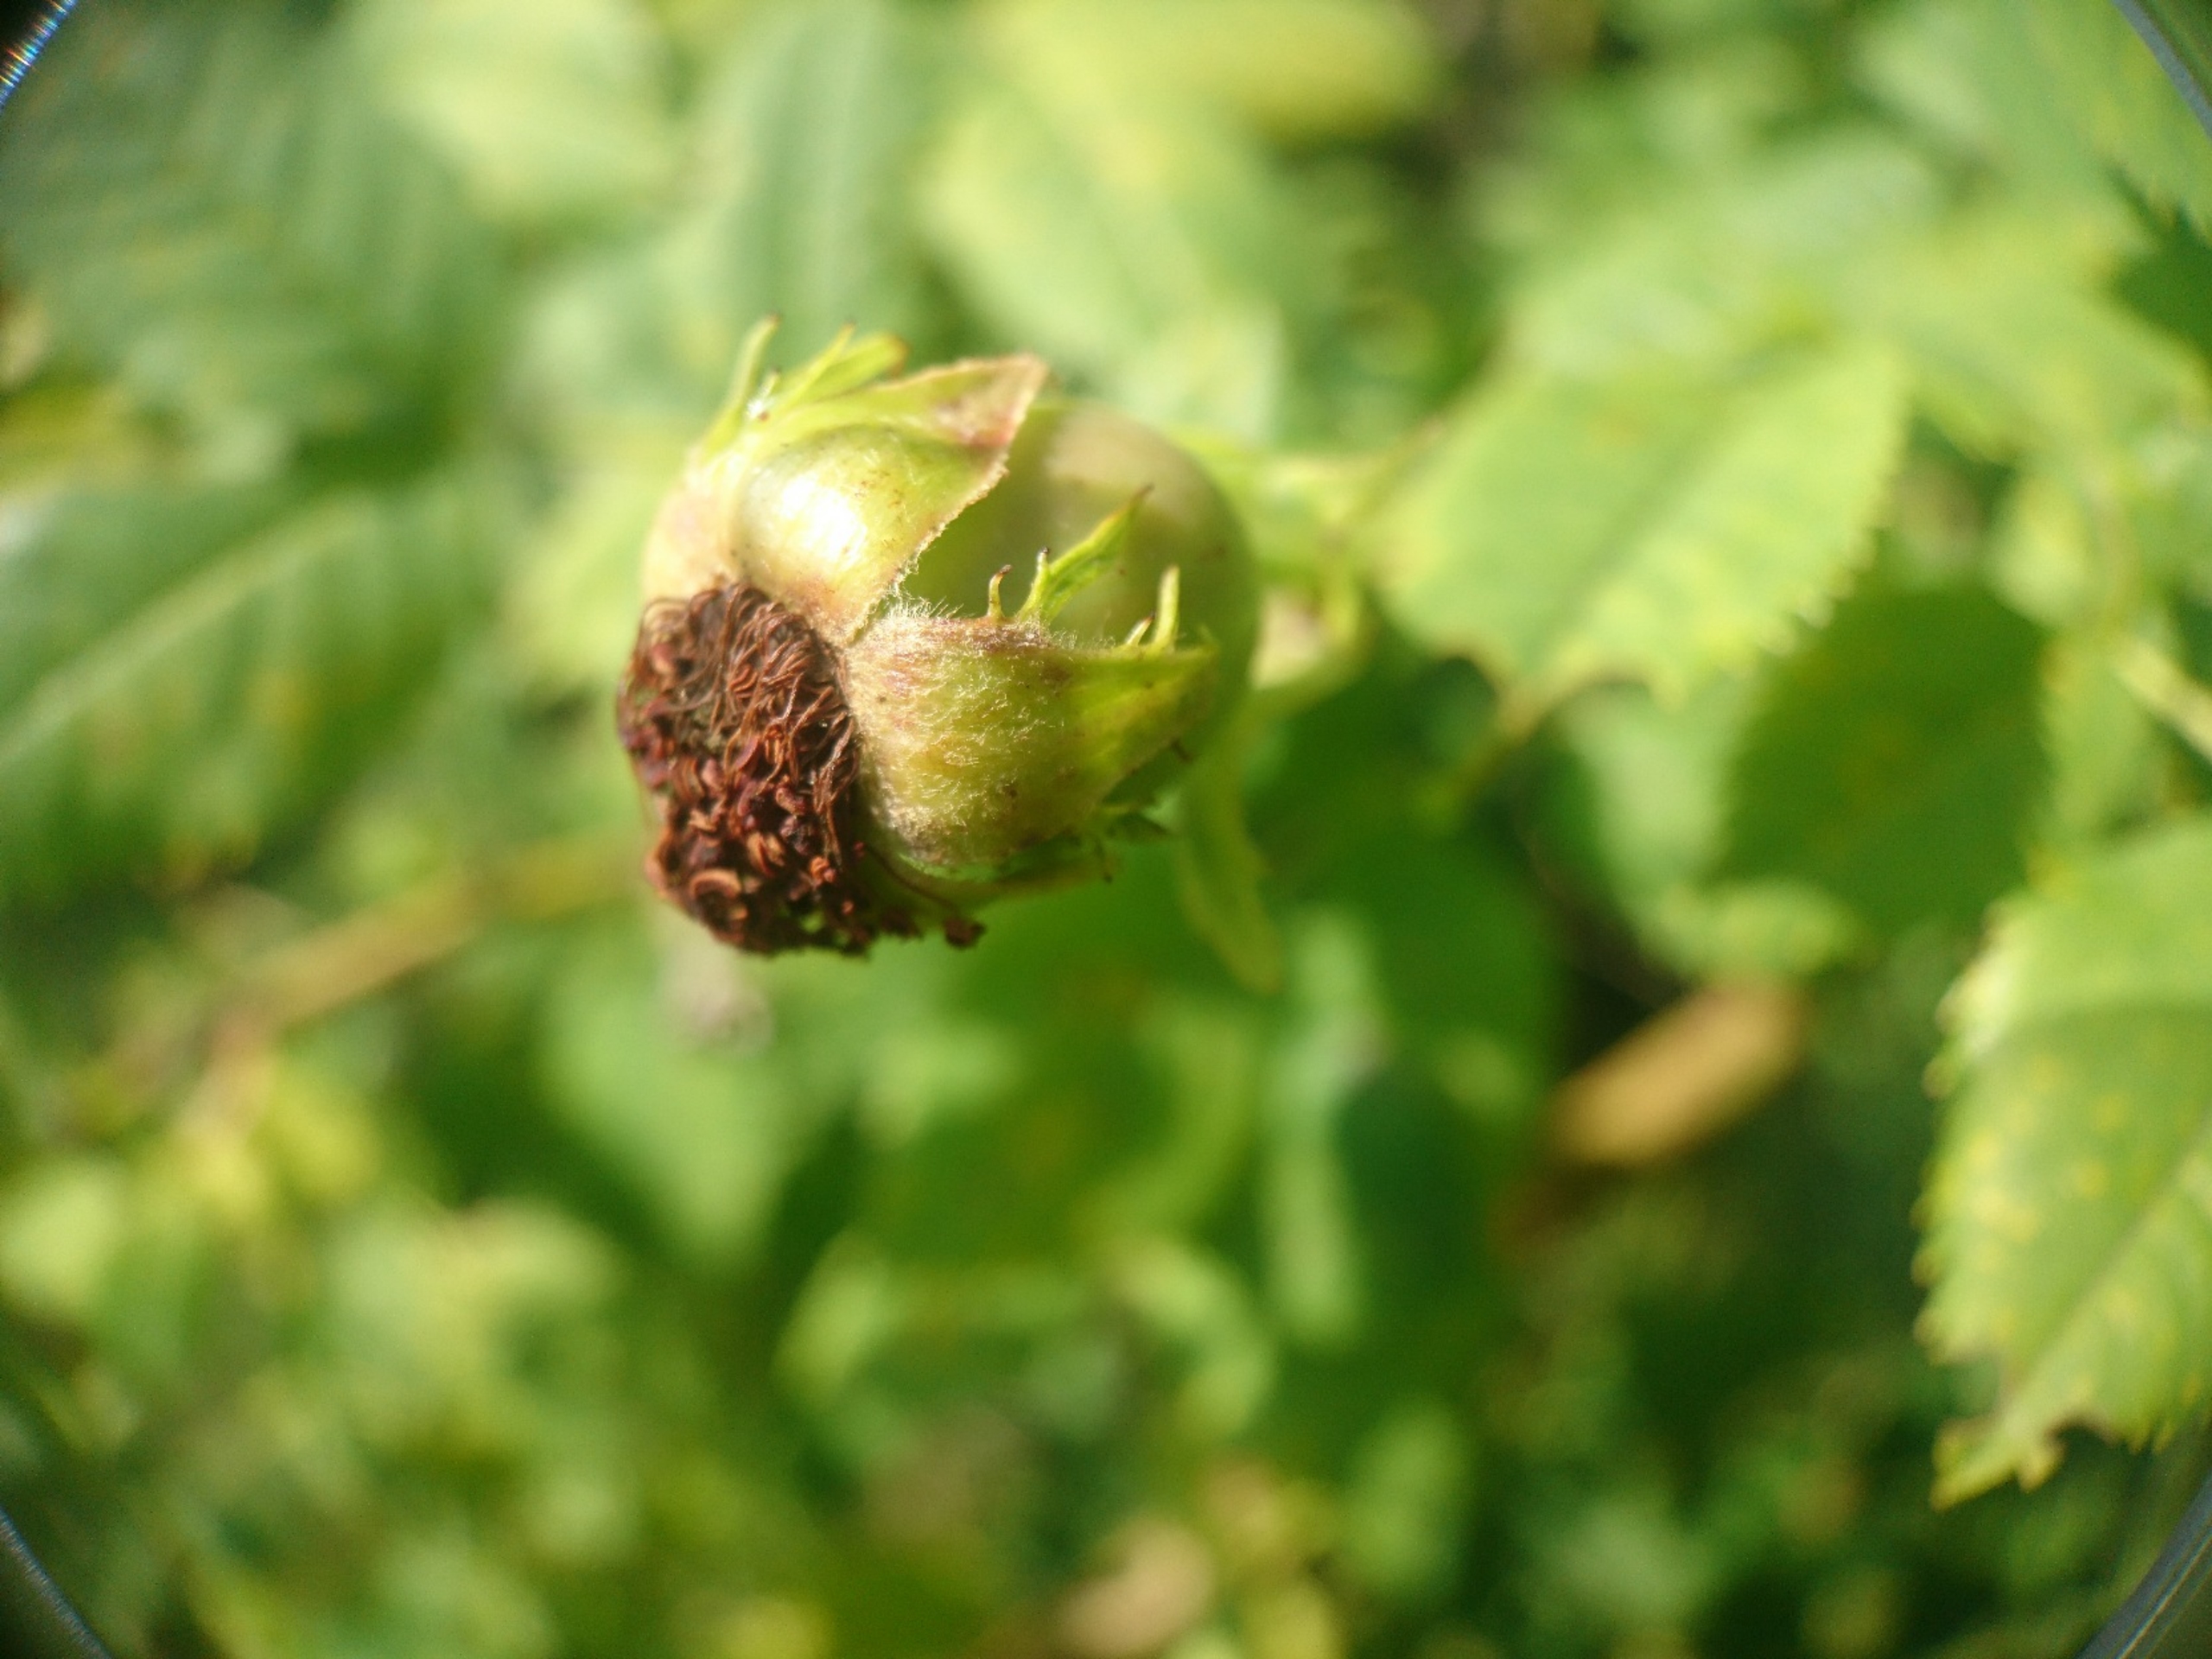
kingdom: Plantae
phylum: Tracheophyta
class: Magnoliopsida
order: Rosales
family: Rosaceae
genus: Rosa
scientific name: Rosa canina
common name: Glat hunde-rose
